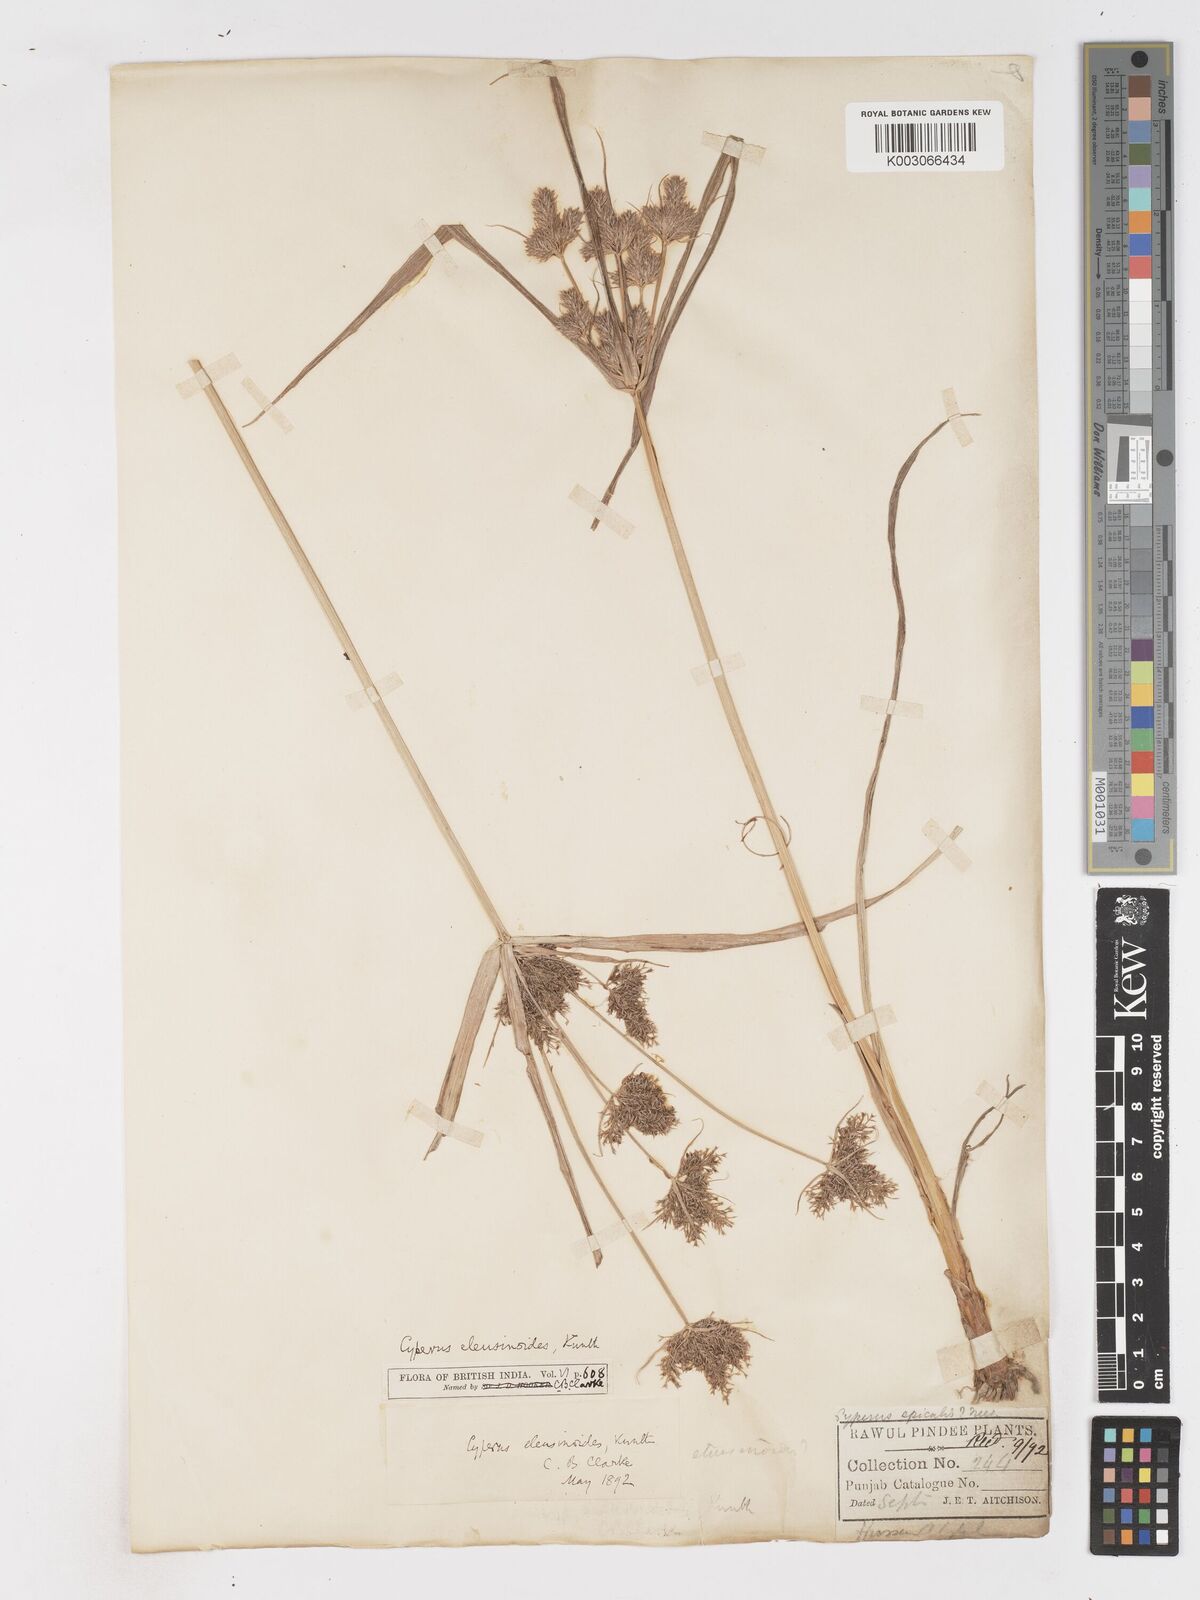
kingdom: Plantae
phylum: Tracheophyta
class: Liliopsida
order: Poales
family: Cyperaceae
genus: Cyperus
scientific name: Cyperus nutans
